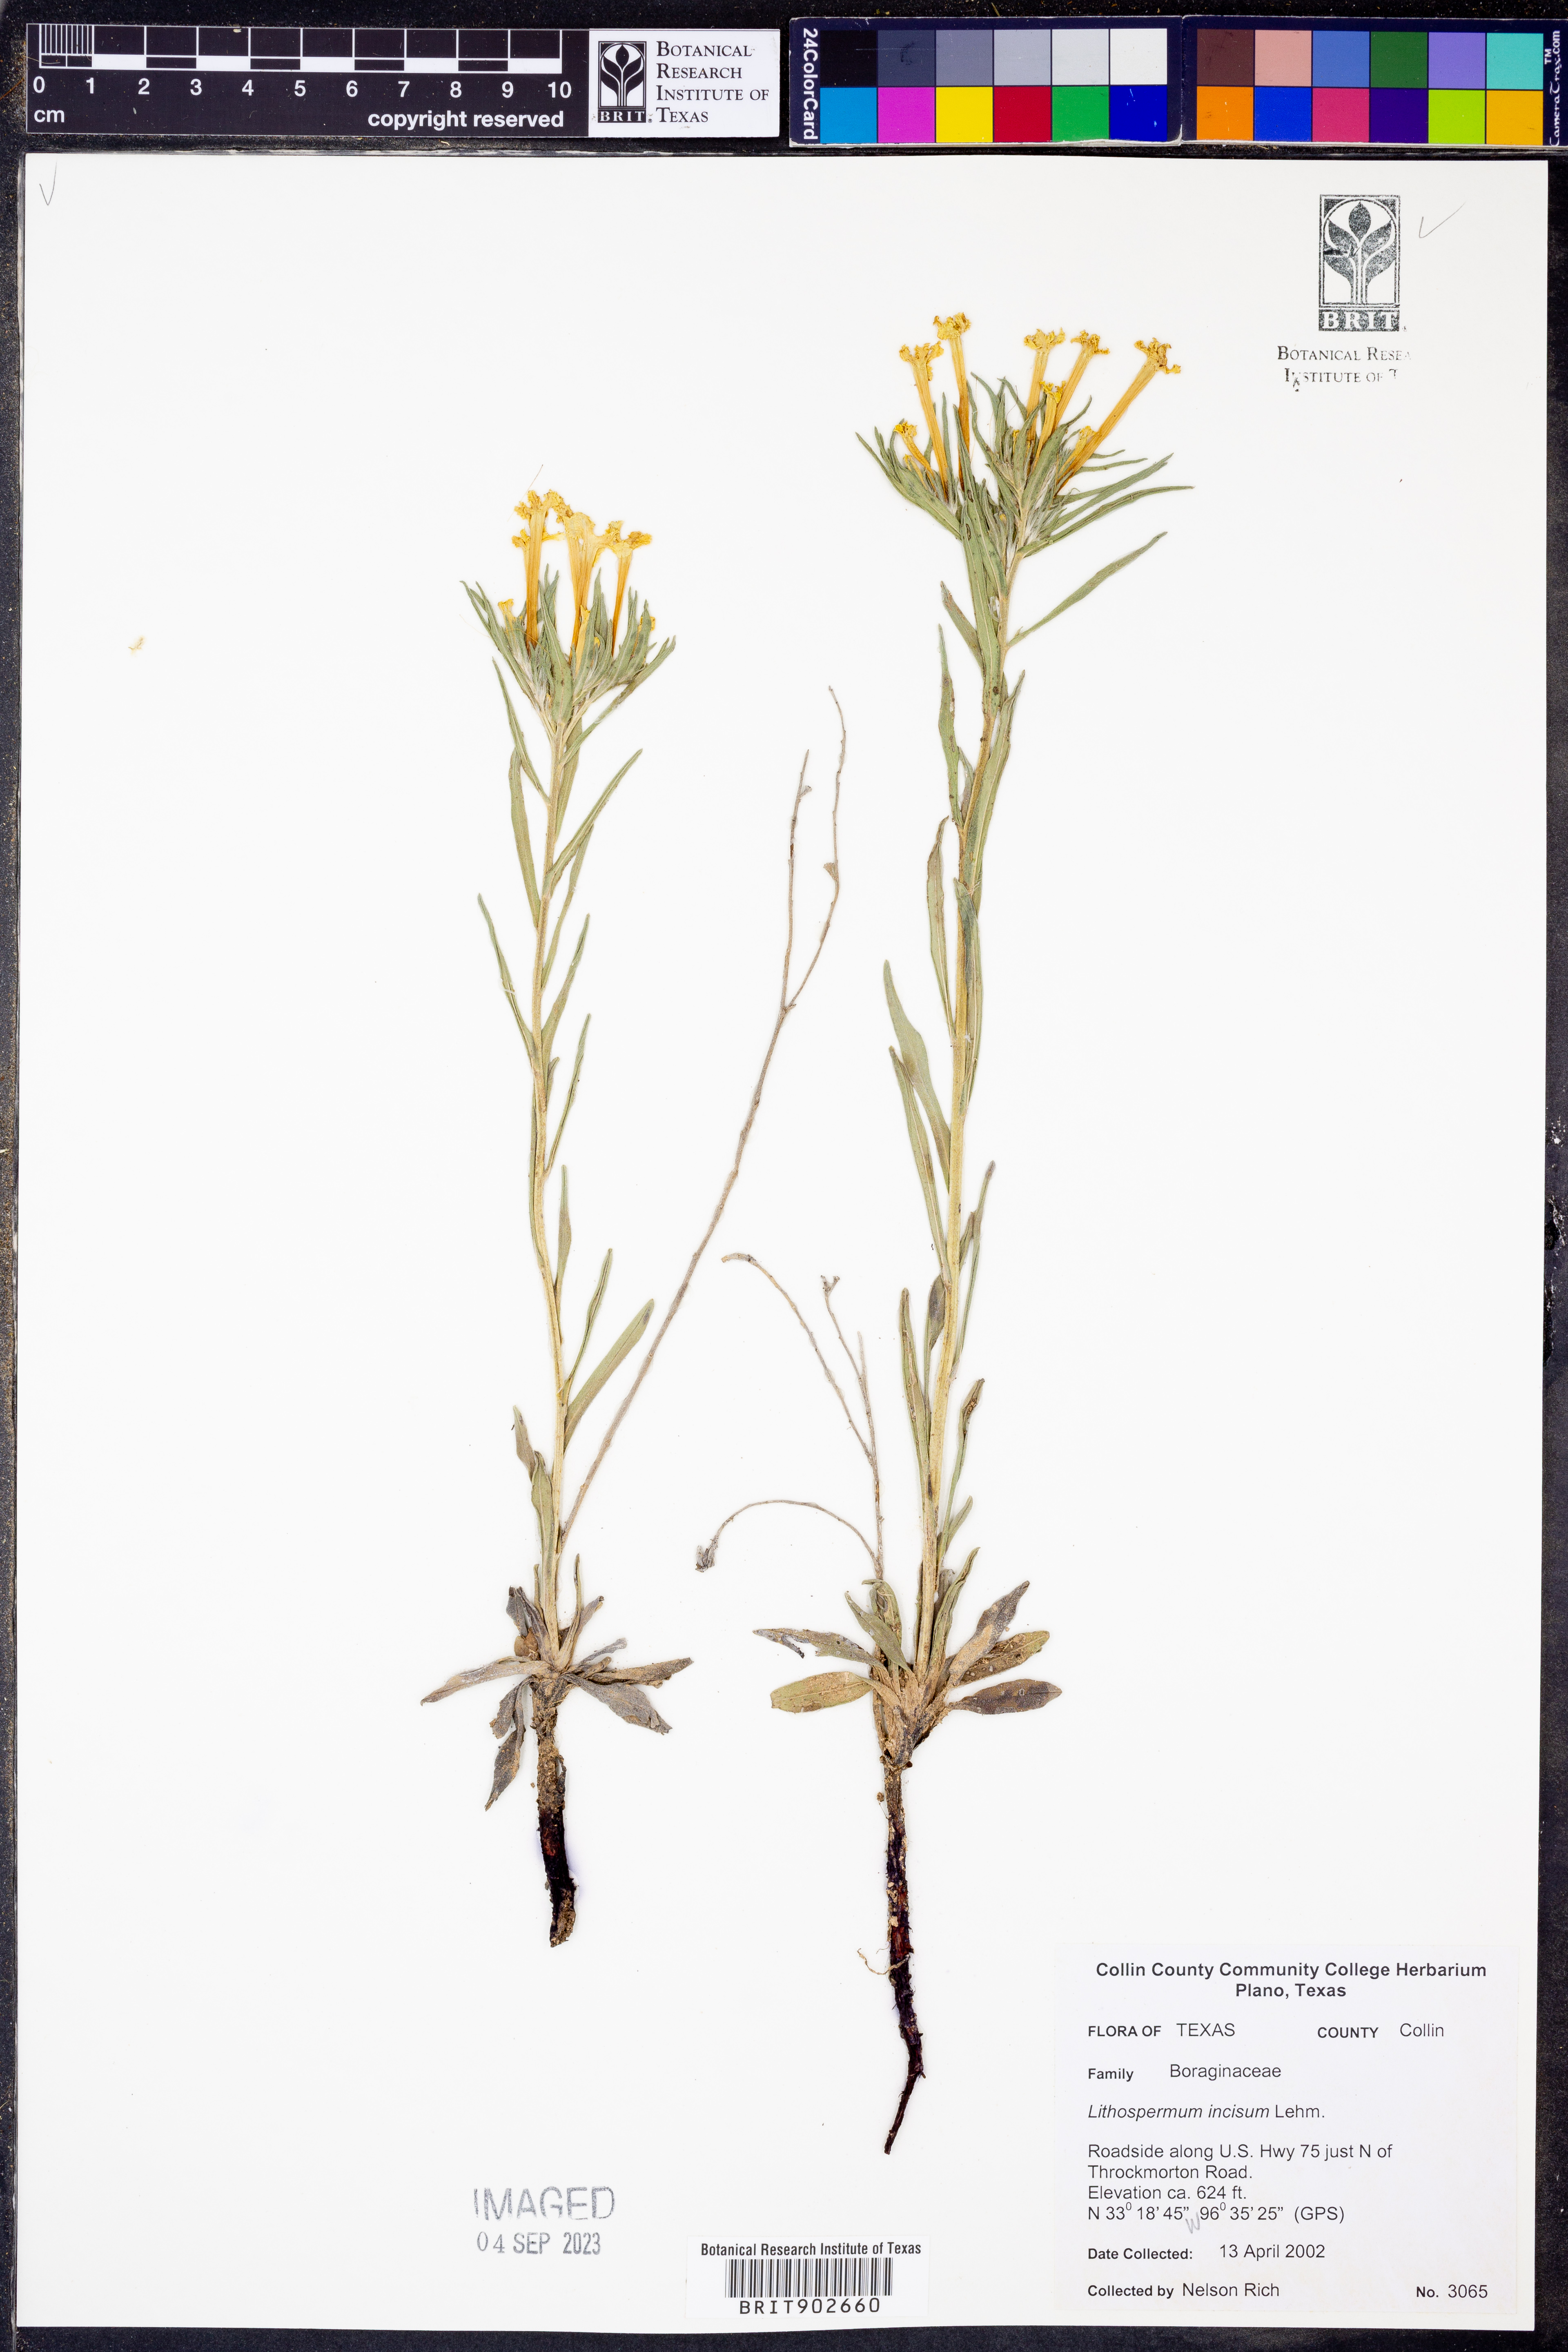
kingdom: Plantae
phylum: Tracheophyta
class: Magnoliopsida
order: Boraginales
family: Boraginaceae
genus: Lithospermum
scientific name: Lithospermum incisum
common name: Fringed gromwell
